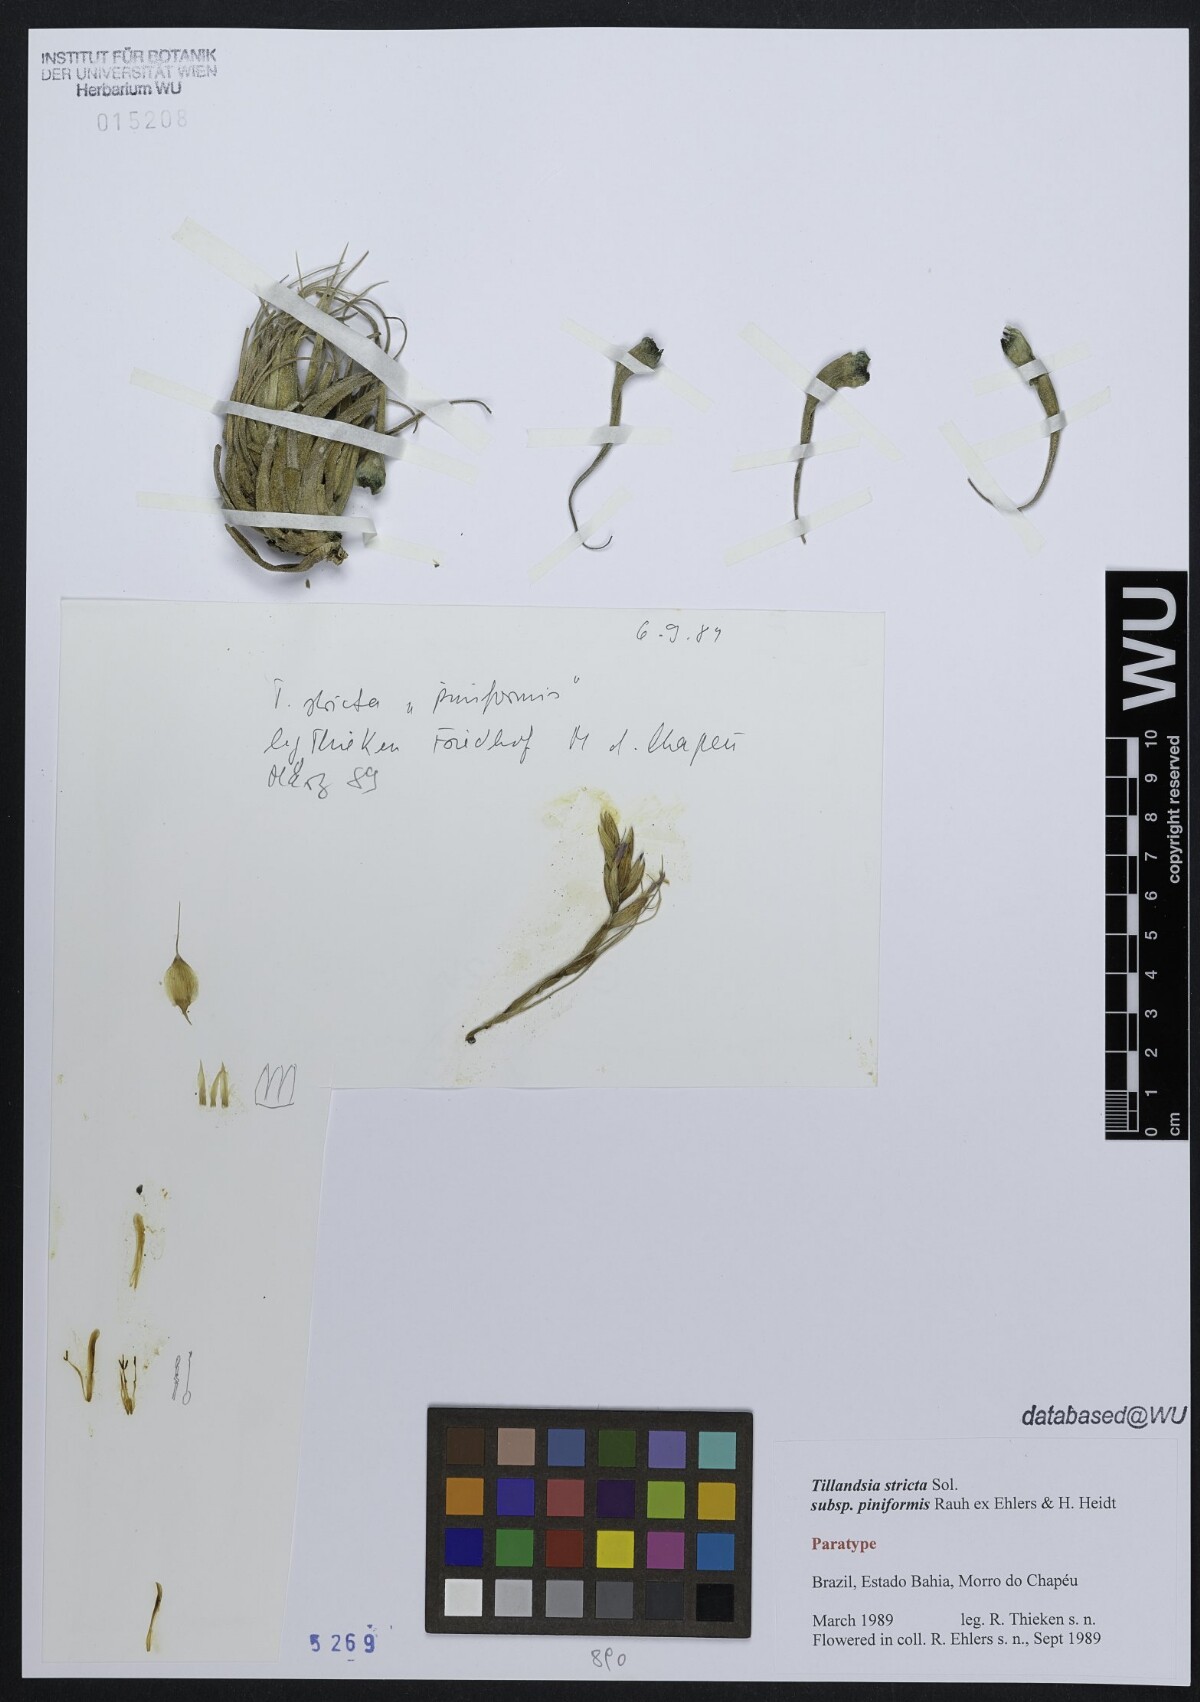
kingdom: Plantae
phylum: Tracheophyta
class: Liliopsida
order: Poales
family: Bromeliaceae
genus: Tillandsia
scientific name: Tillandsia stricta
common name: Airplant
